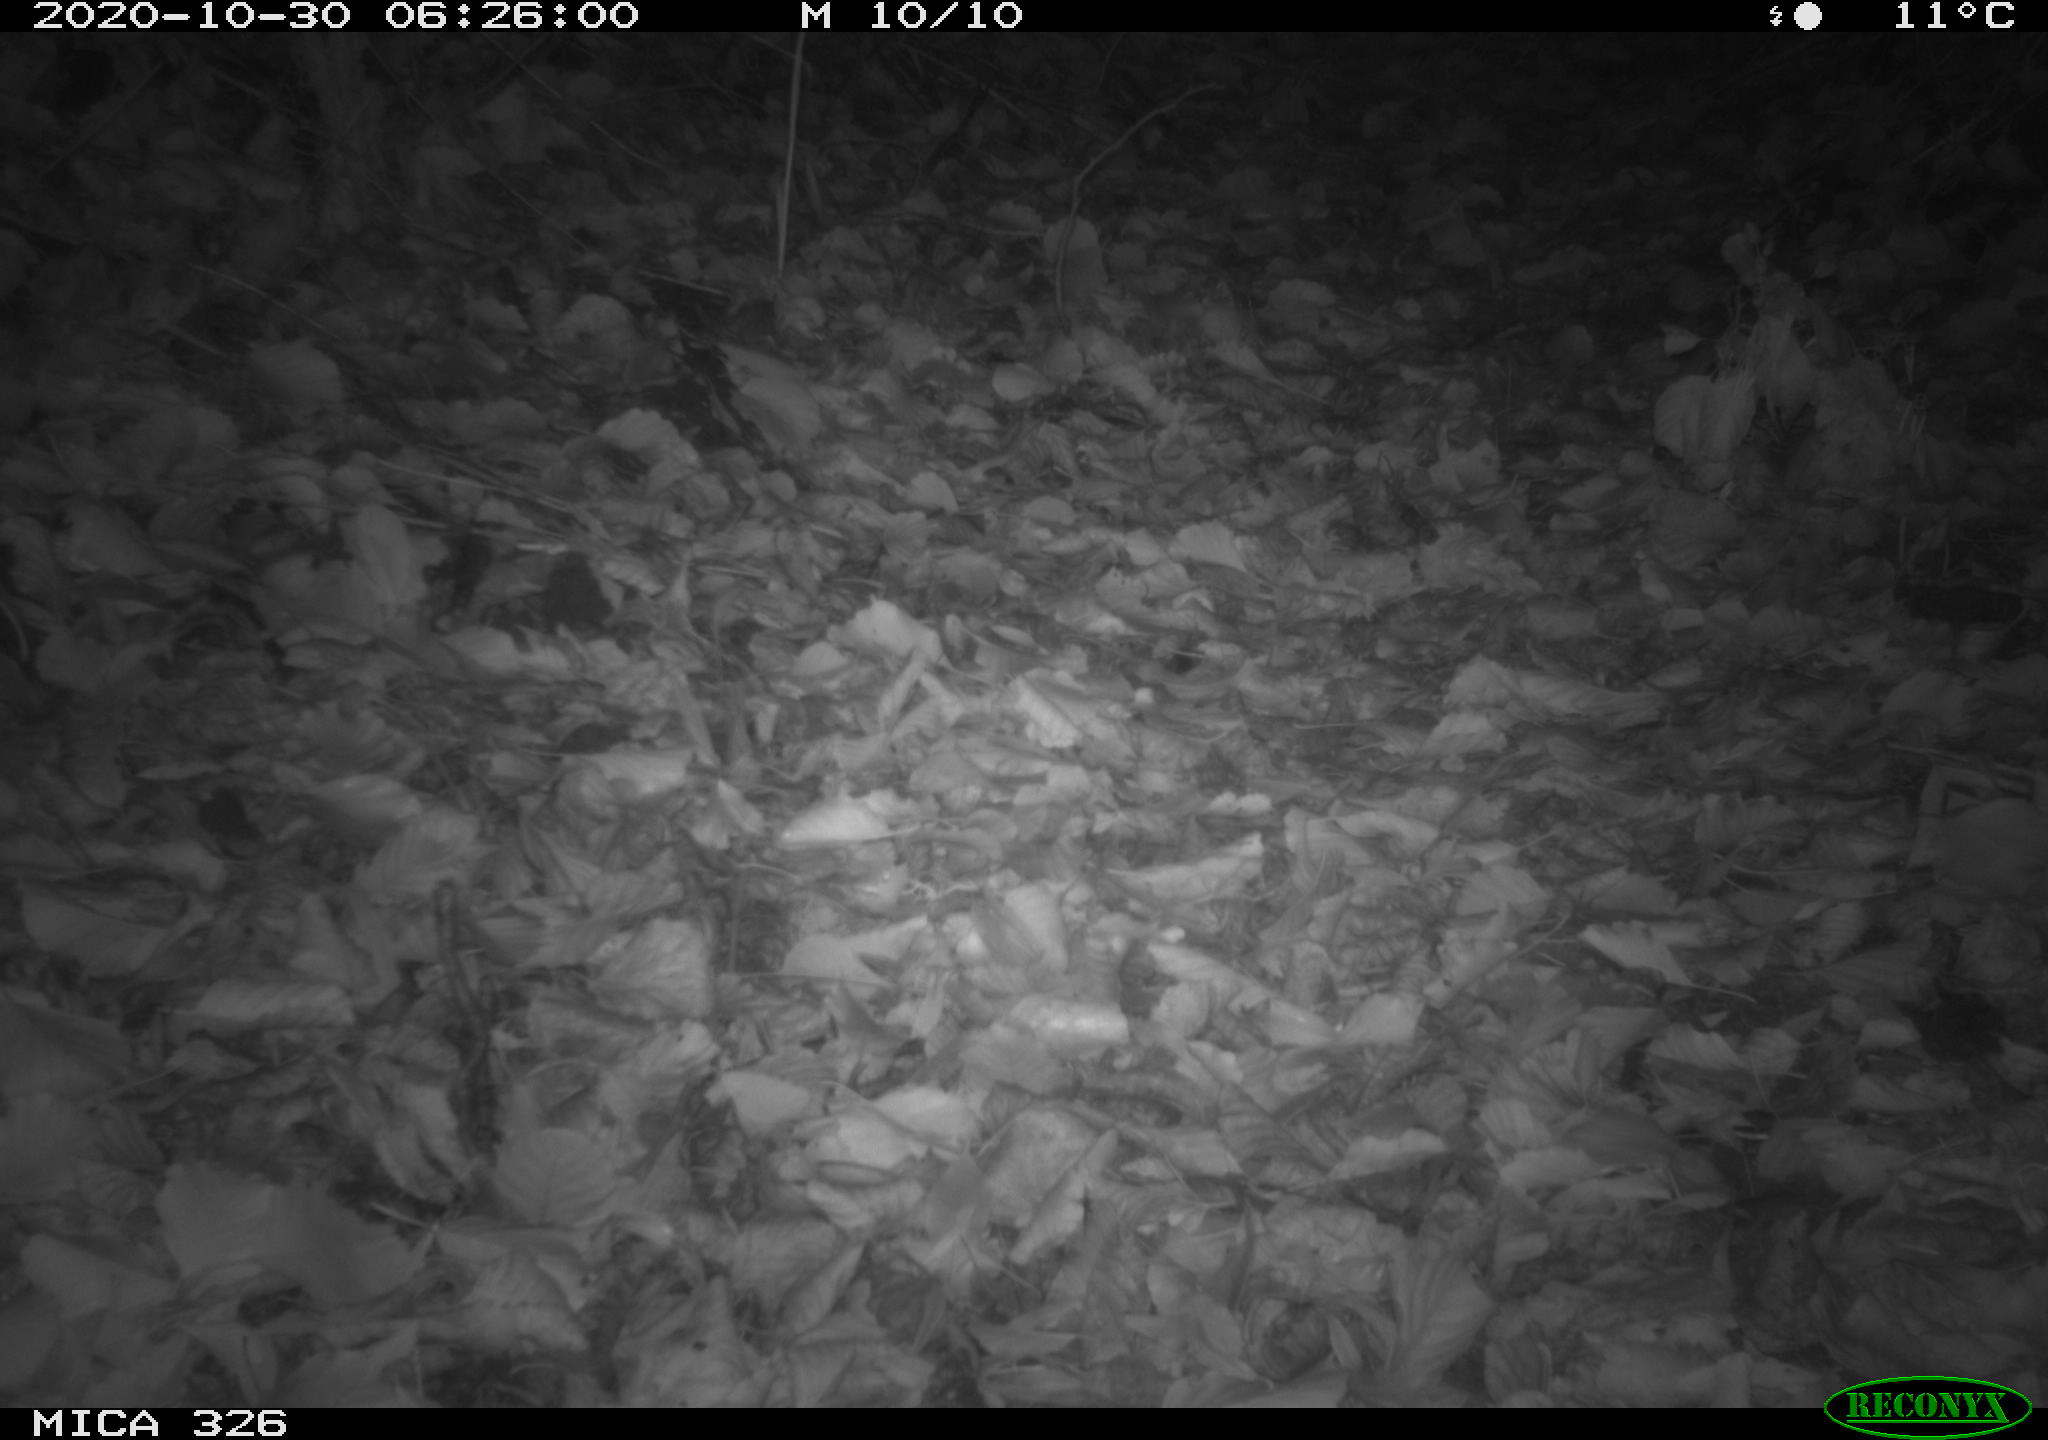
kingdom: Animalia
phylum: Chordata
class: Mammalia
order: Rodentia
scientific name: Rodentia
